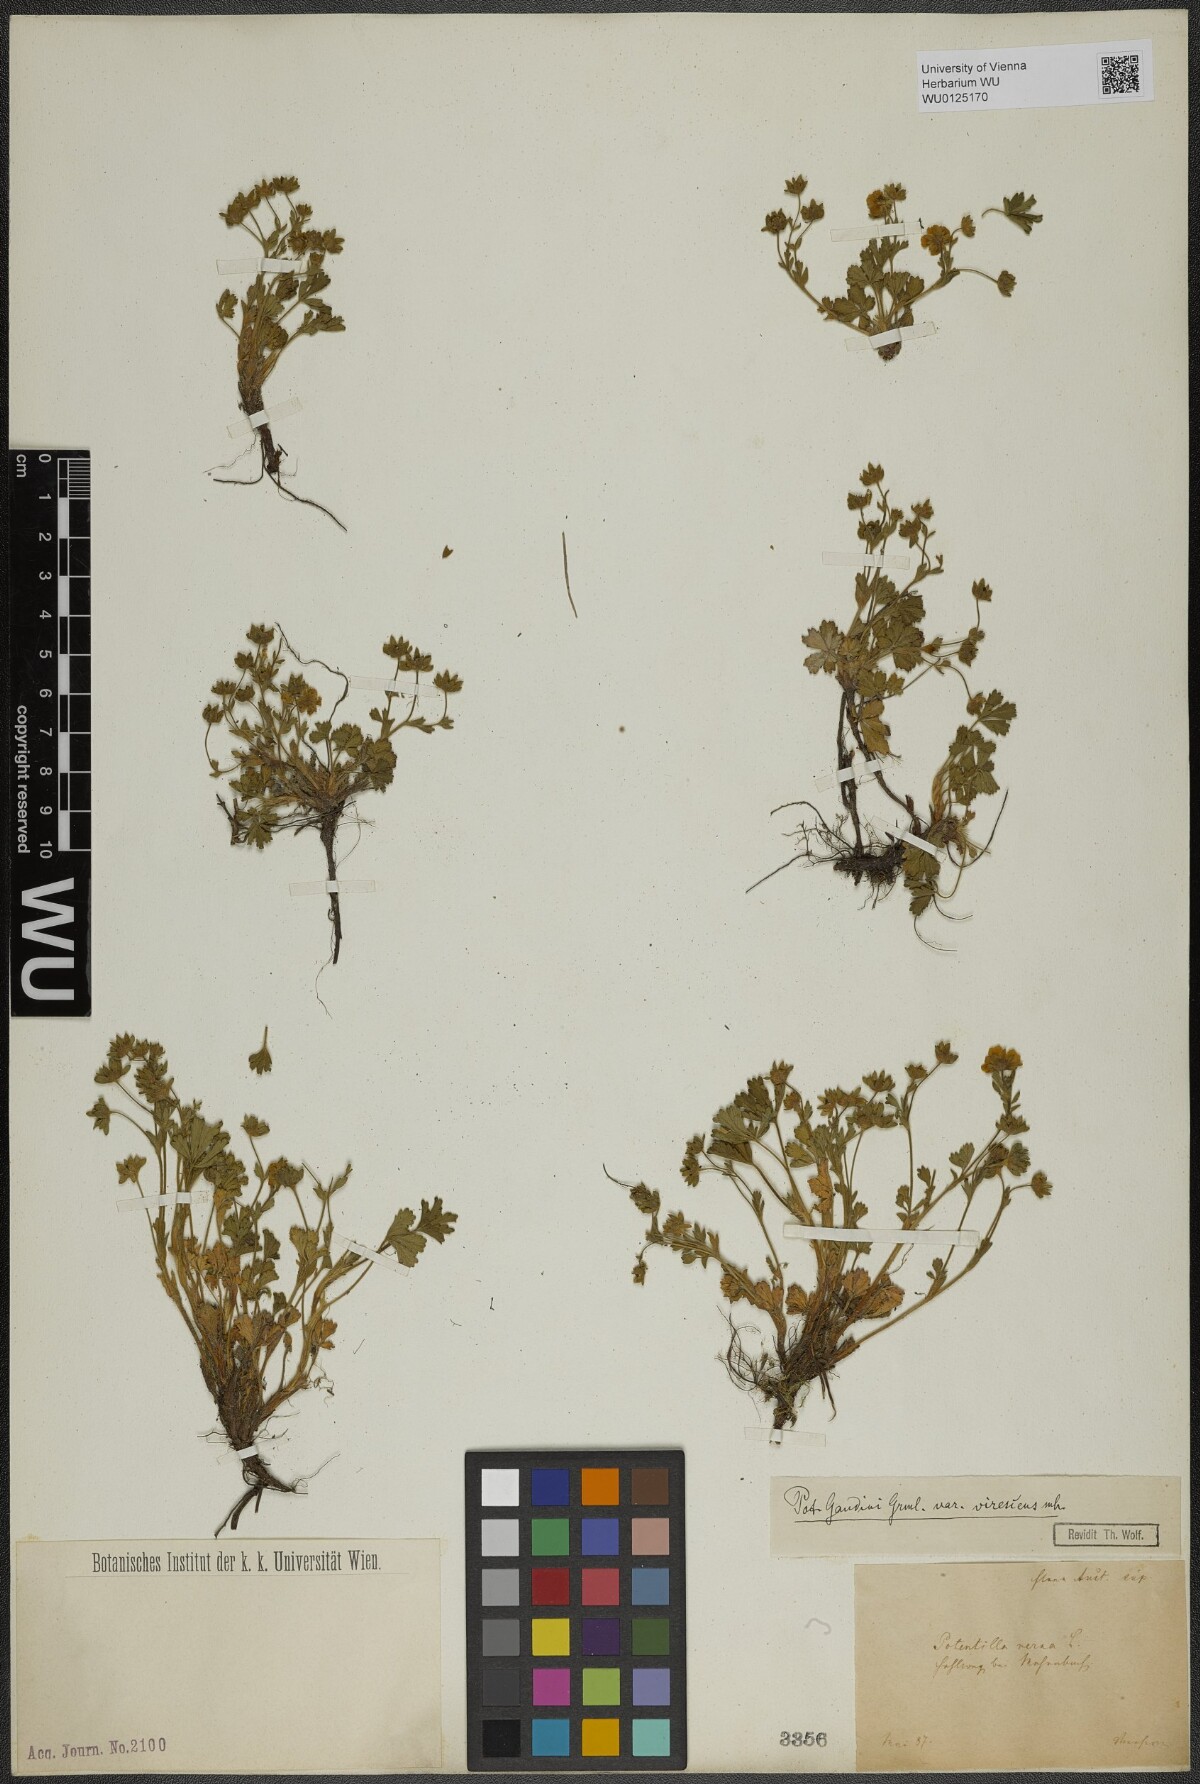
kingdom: Plantae
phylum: Tracheophyta
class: Magnoliopsida
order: Rosales
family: Rosaceae
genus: Potentilla
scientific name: Potentilla pusilla
